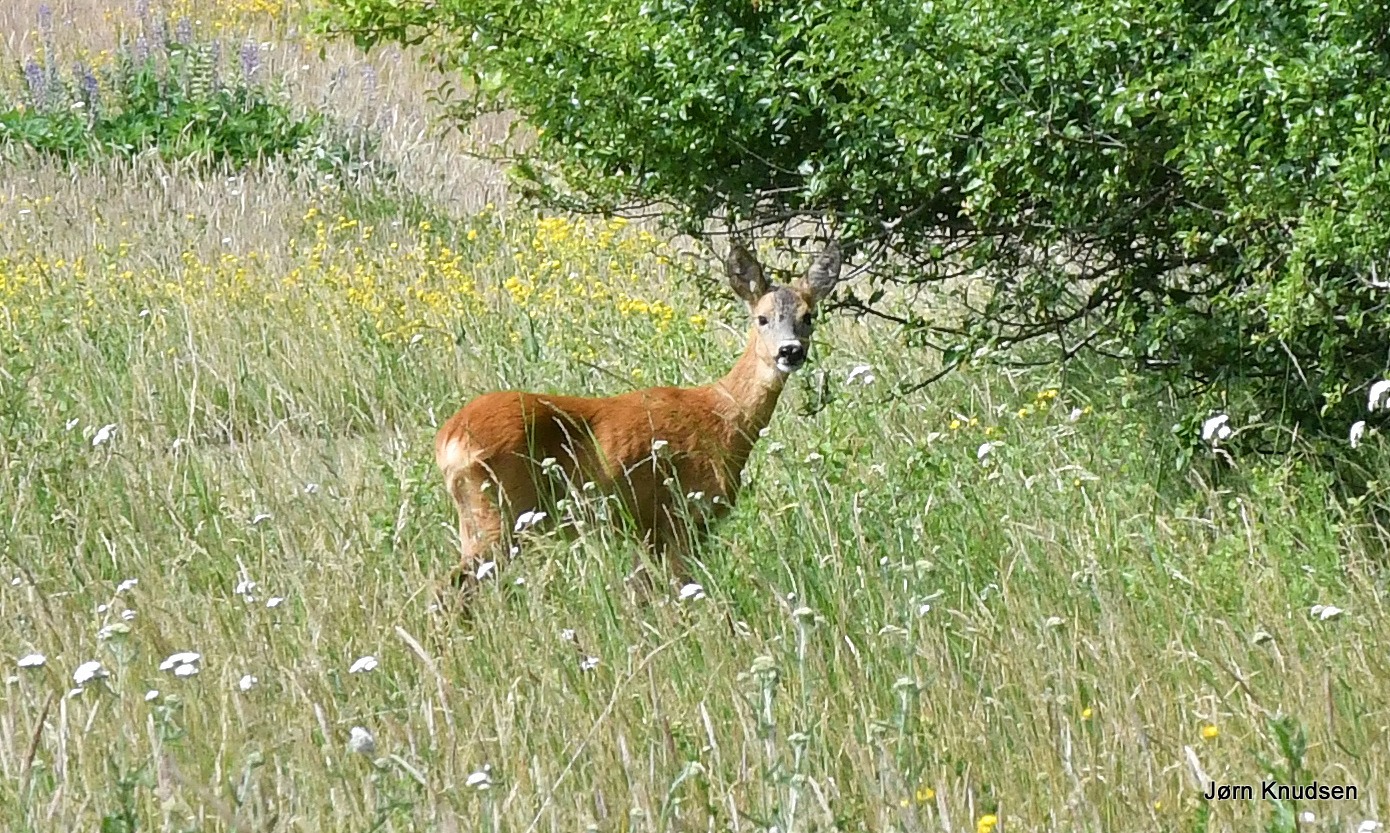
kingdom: Animalia
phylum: Chordata
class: Mammalia
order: Artiodactyla
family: Cervidae
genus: Capreolus
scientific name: Capreolus capreolus
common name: Rådyr
